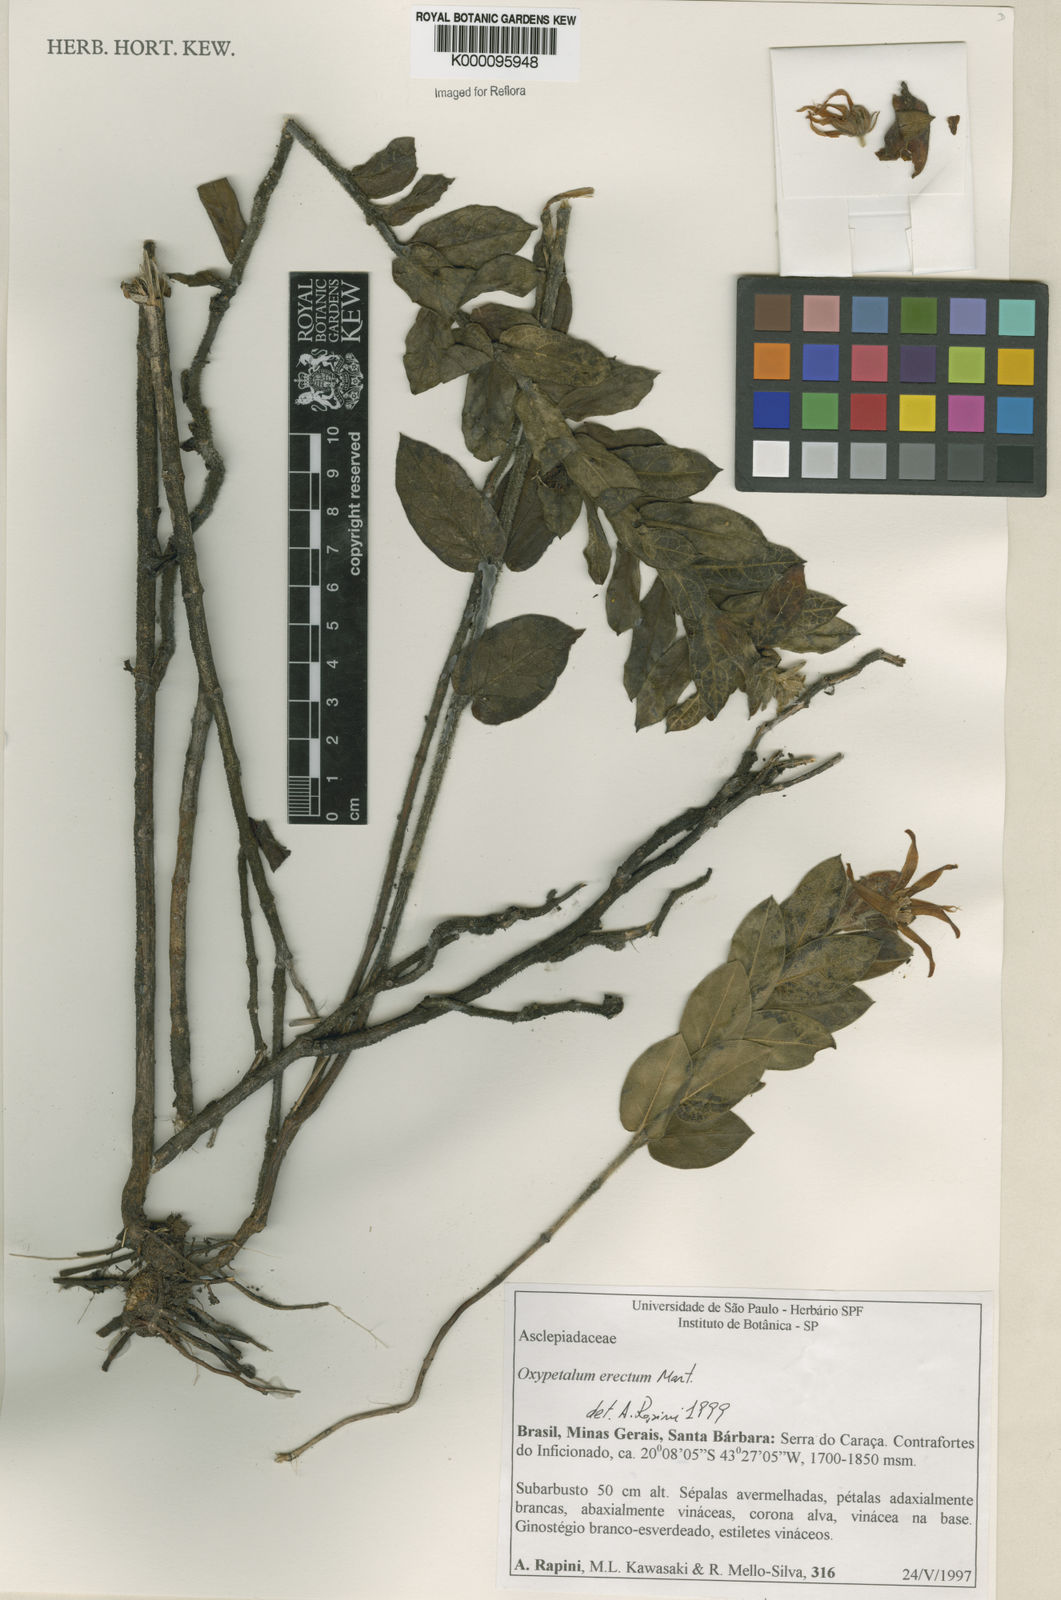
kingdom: Plantae
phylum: Tracheophyta
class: Magnoliopsida
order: Gentianales
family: Apocynaceae
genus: Oxypetalum
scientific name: Oxypetalum erectum
